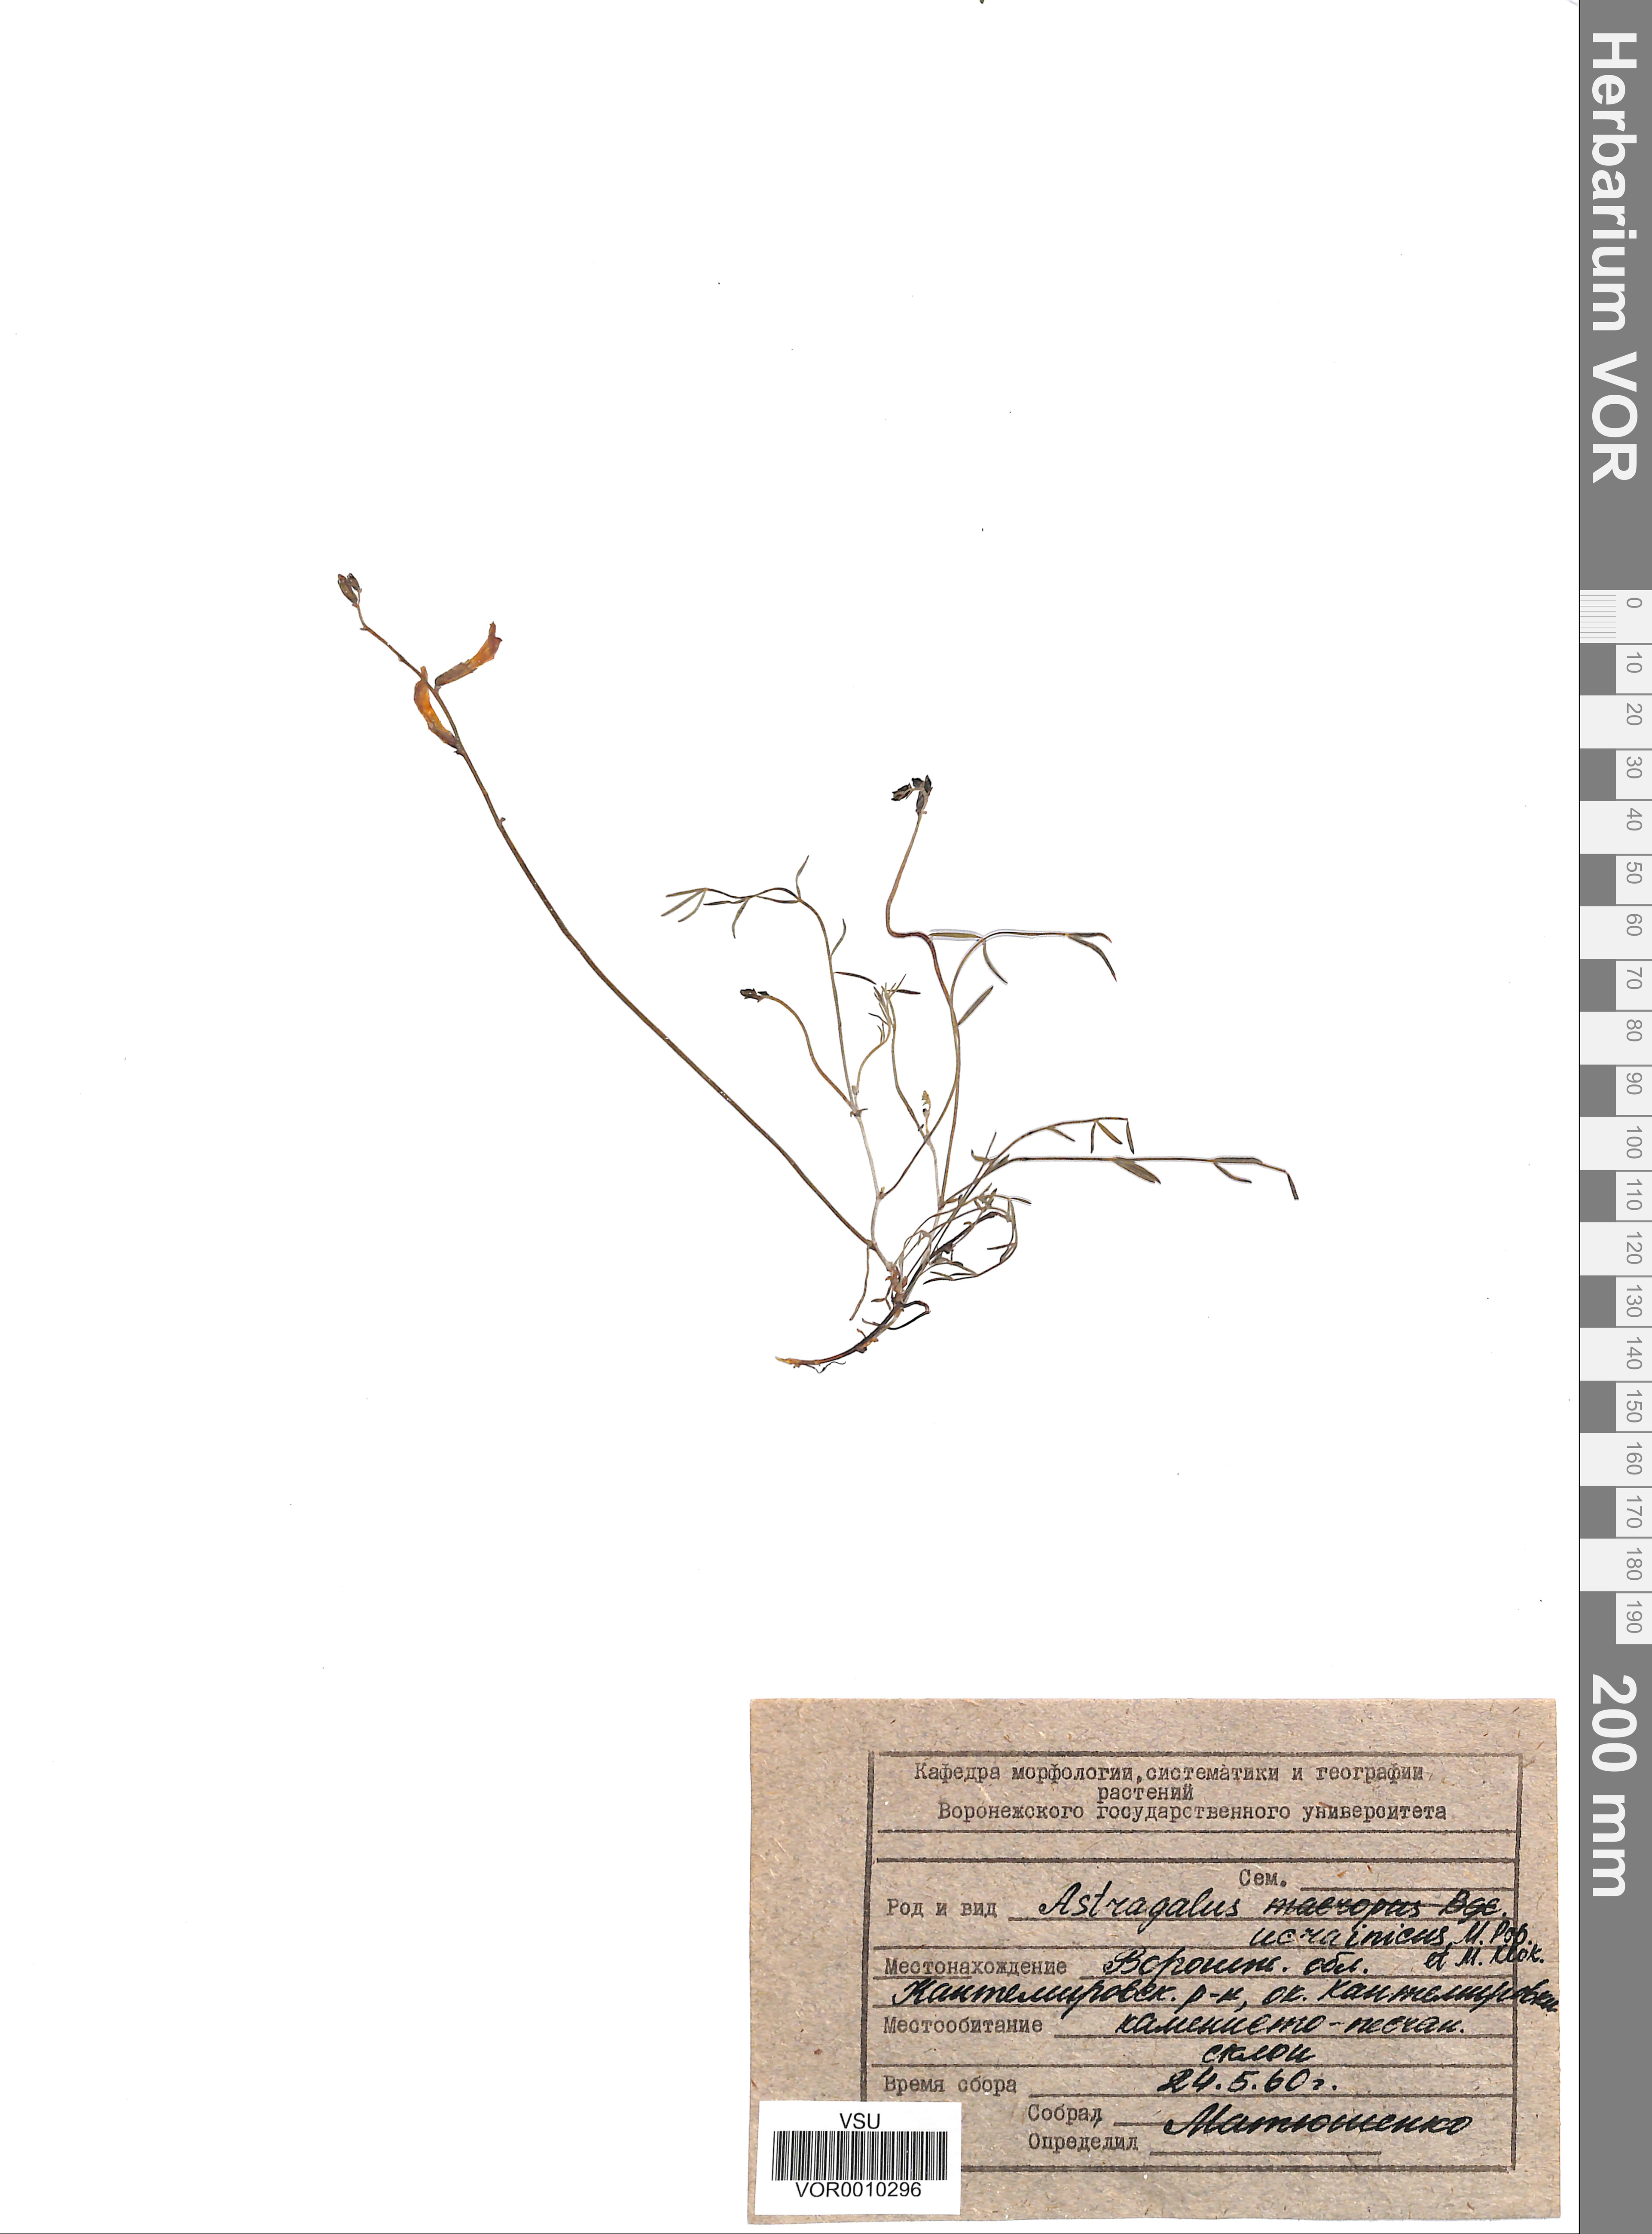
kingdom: Plantae
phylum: Tracheophyta
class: Magnoliopsida
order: Fabales
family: Fabaceae
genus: Astragalus
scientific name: Astragalus ucrainicus
